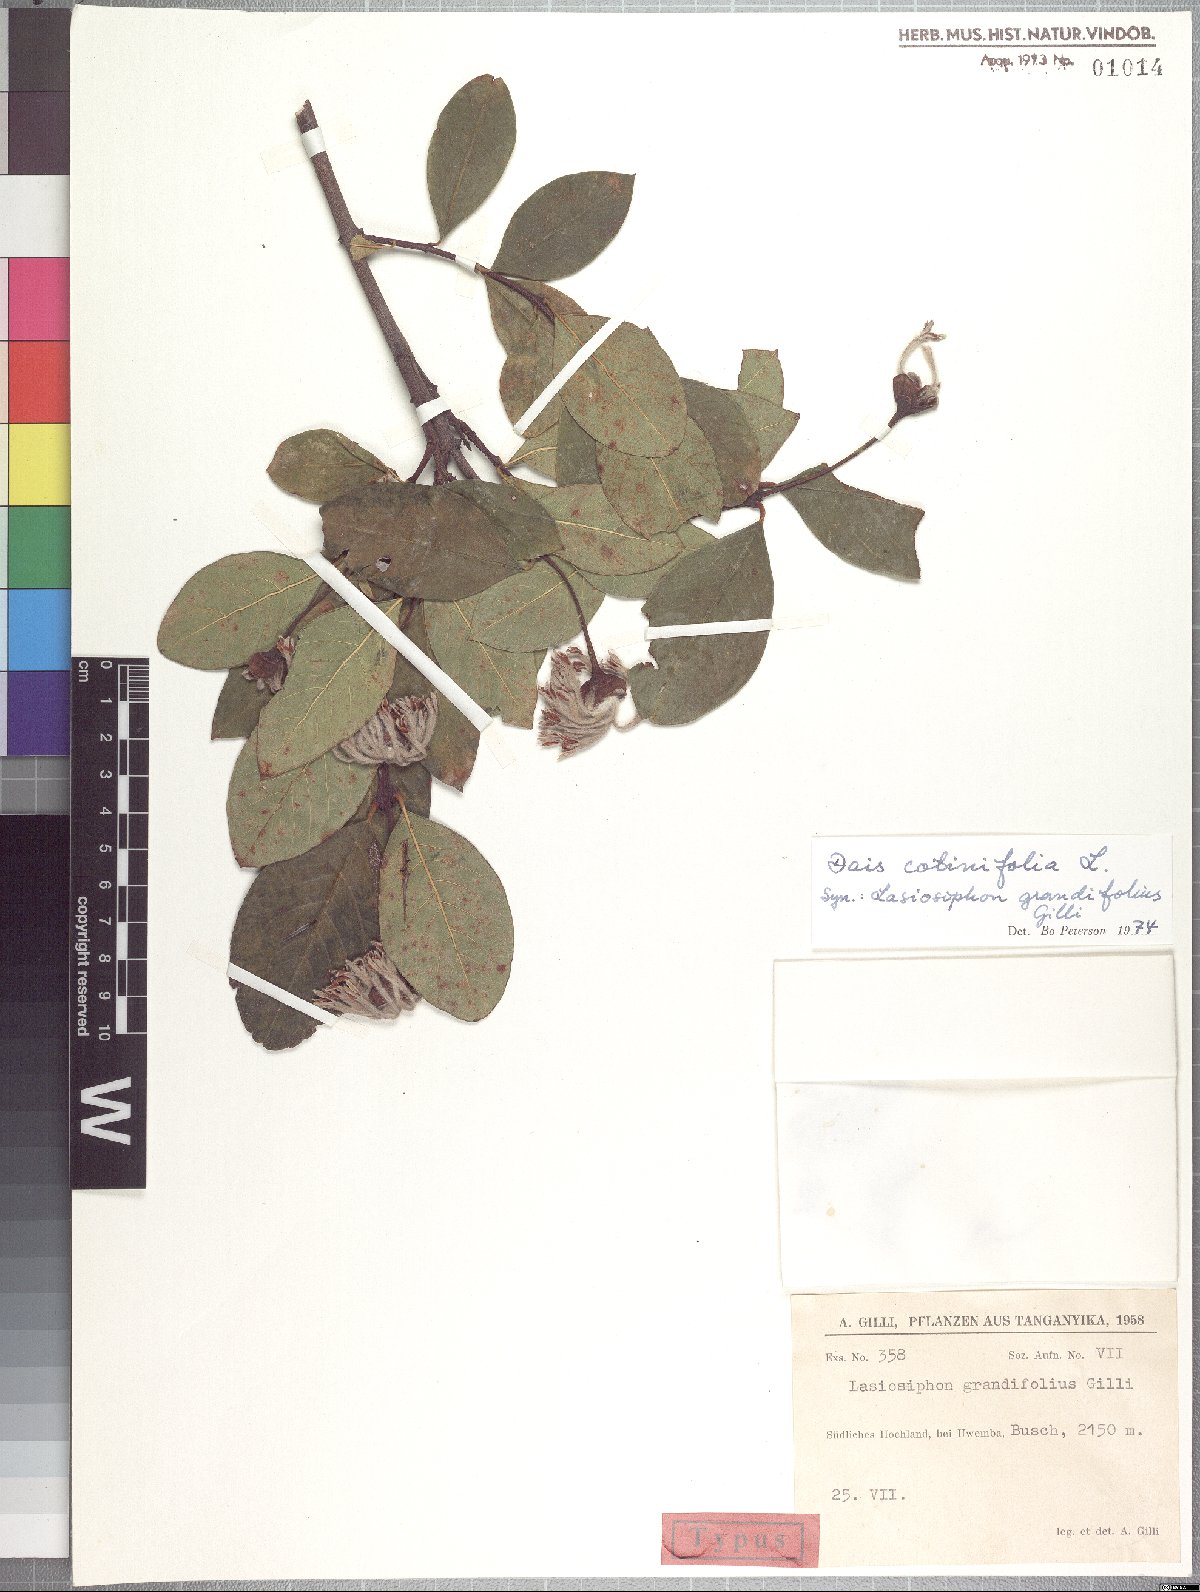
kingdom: Plantae
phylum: Tracheophyta
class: Magnoliopsida
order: Malvales
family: Thymelaeaceae
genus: Dais
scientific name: Dais cotinifolia
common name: Pompon tree
